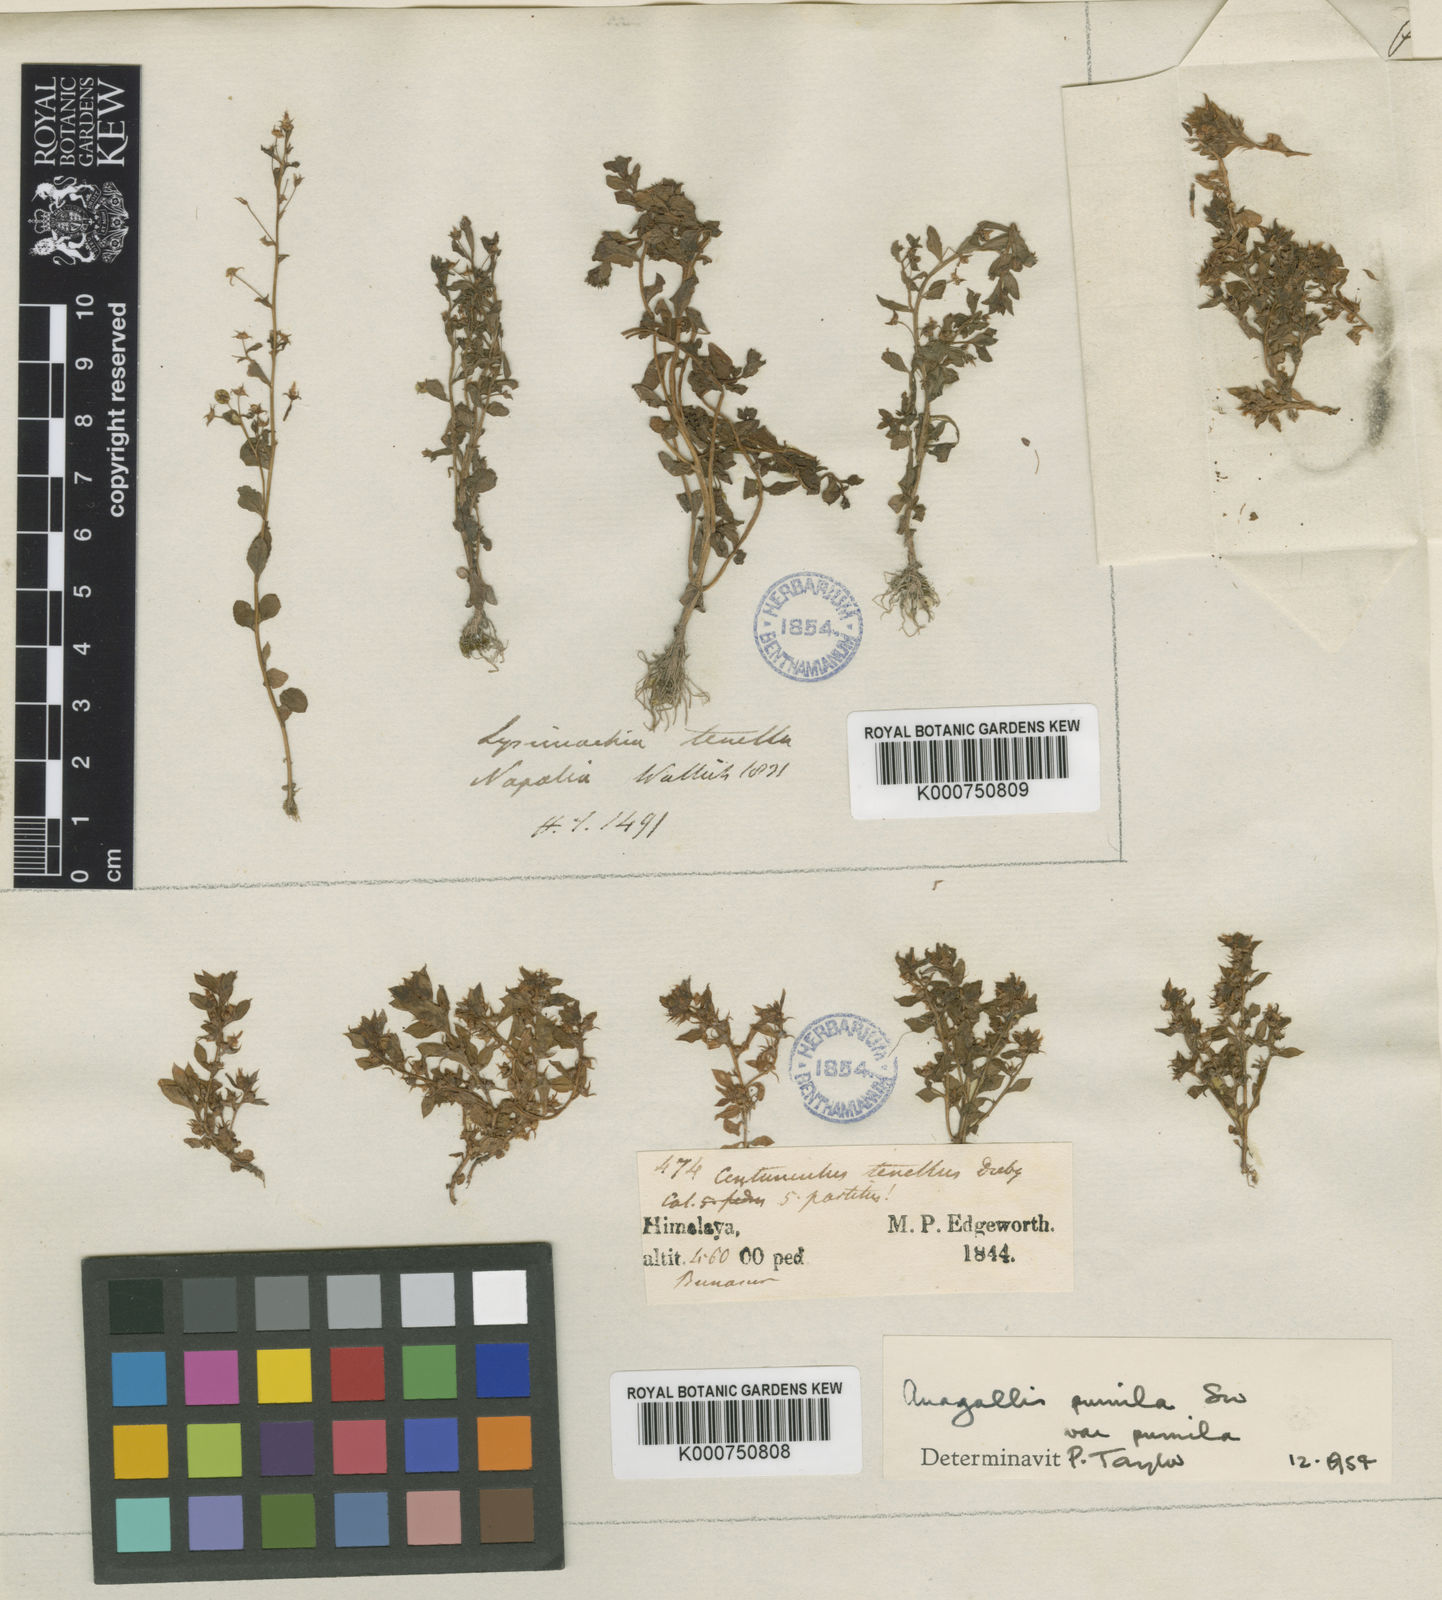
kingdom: Plantae
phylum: Tracheophyta
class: Magnoliopsida
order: Ericales
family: Primulaceae
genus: Lysimachia
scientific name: Lysimachia ovalis
